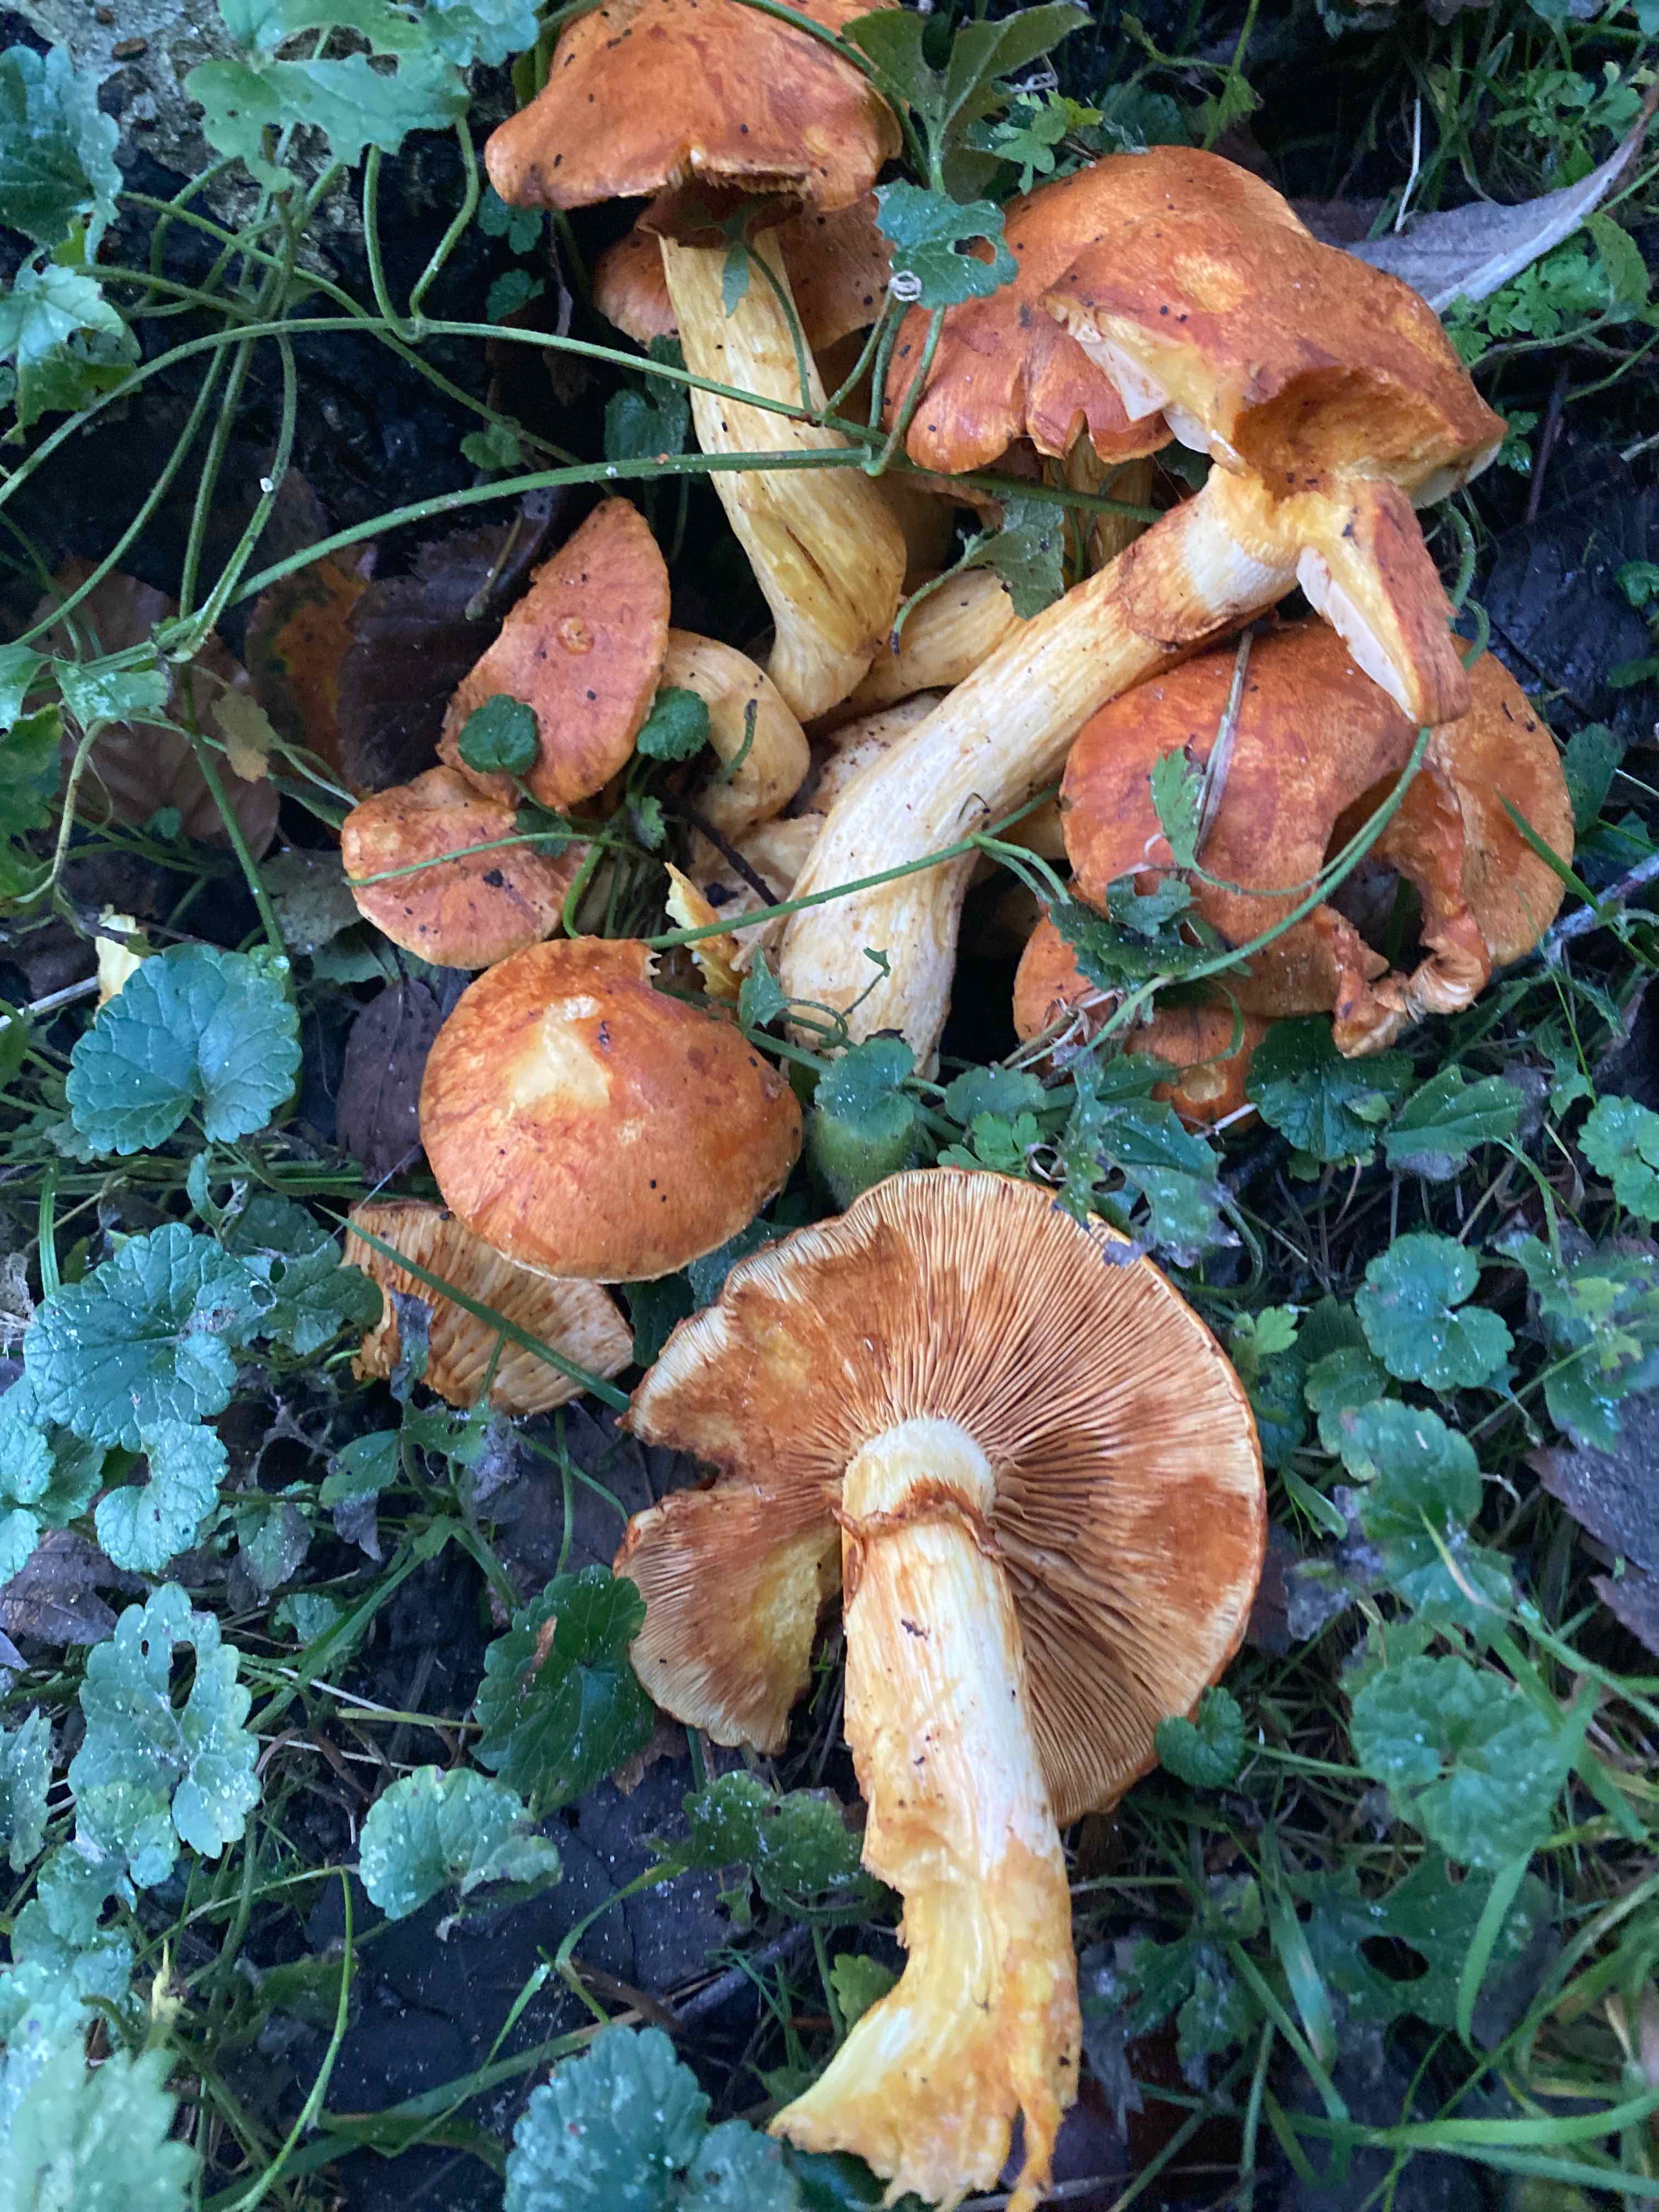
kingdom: Fungi
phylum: Basidiomycota
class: Agaricomycetes
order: Agaricales
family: Hymenogastraceae
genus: Gymnopilus
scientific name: Gymnopilus spectabilis
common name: fibret flammehat
